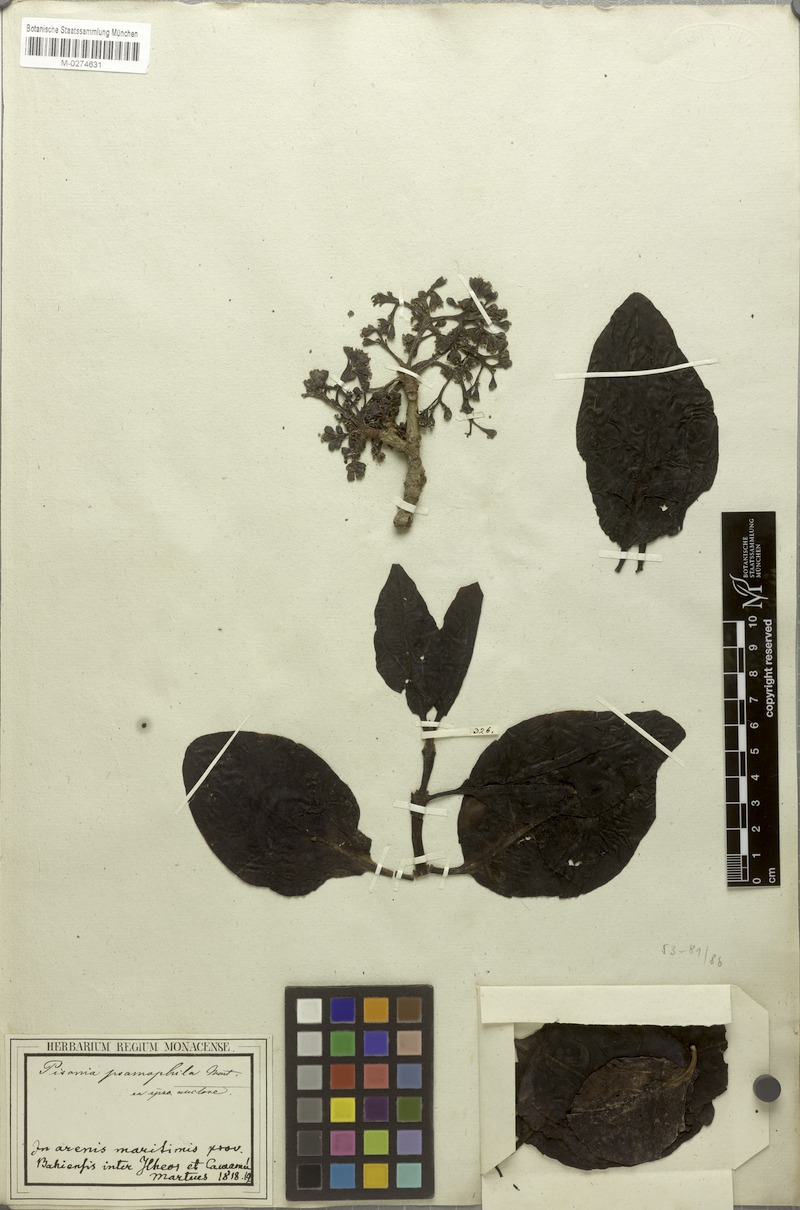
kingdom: Plantae
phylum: Tracheophyta
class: Magnoliopsida
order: Caryophyllales
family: Nyctaginaceae
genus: Guapira
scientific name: Guapira laxa
